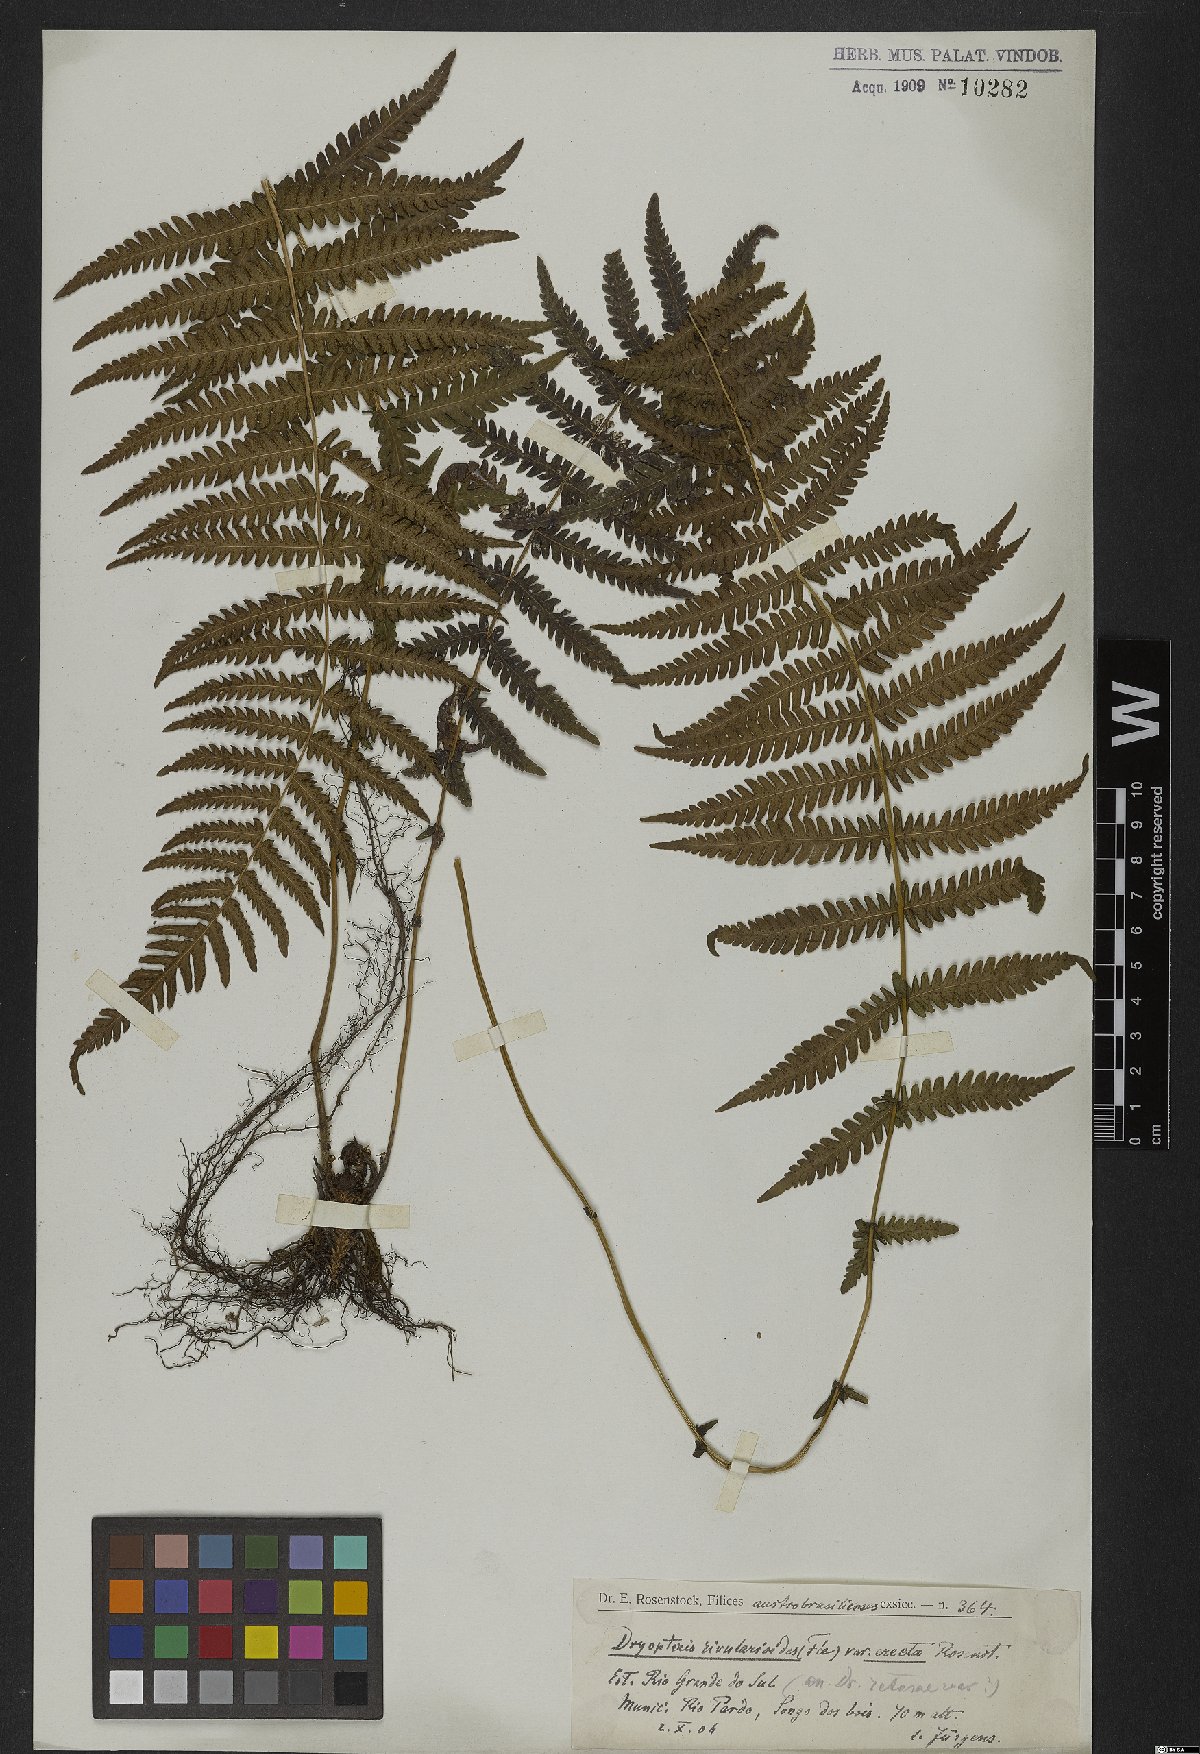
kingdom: Plantae
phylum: Tracheophyta
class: Polypodiopsida
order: Polypodiales
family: Thelypteridaceae
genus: Amauropelta
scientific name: Amauropelta rivularioides
